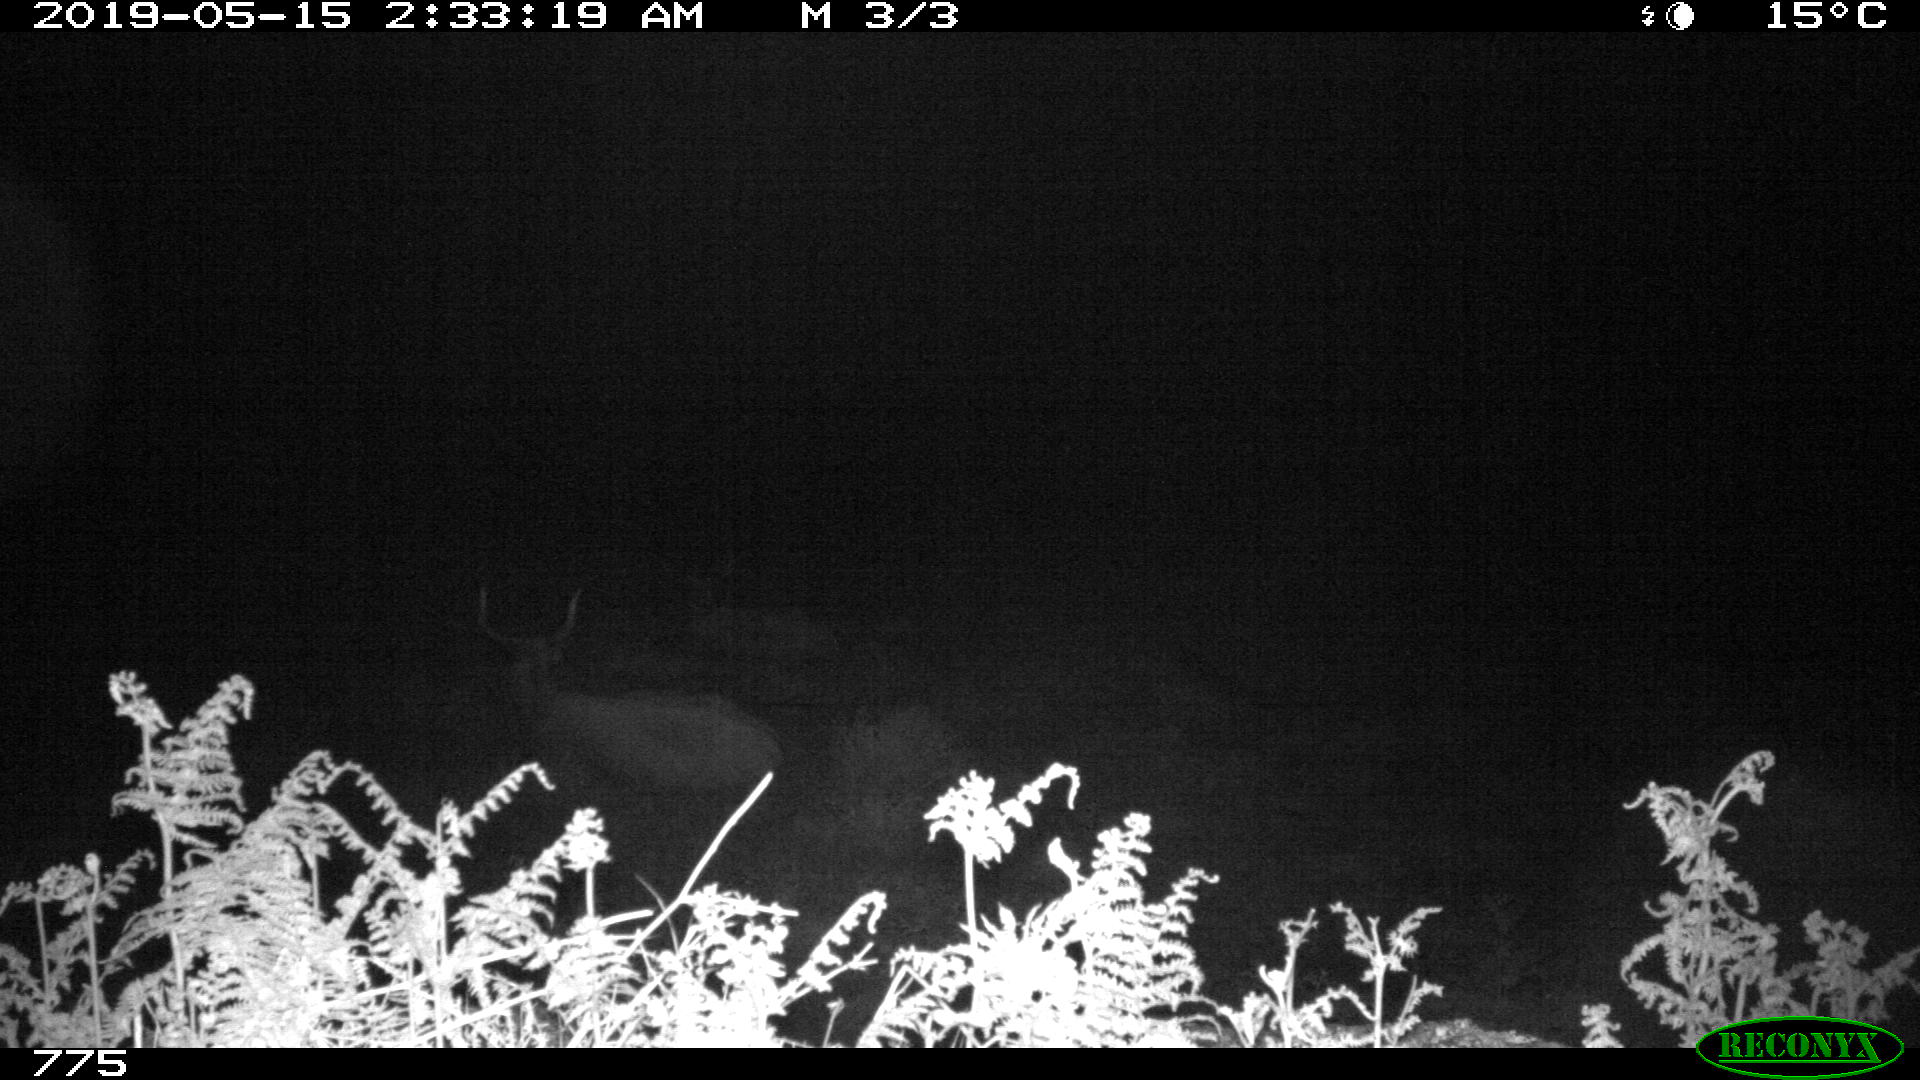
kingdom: Animalia
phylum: Chordata
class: Mammalia
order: Artiodactyla
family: Bovidae
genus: Bos
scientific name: Bos taurus
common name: Domesticated cattle
